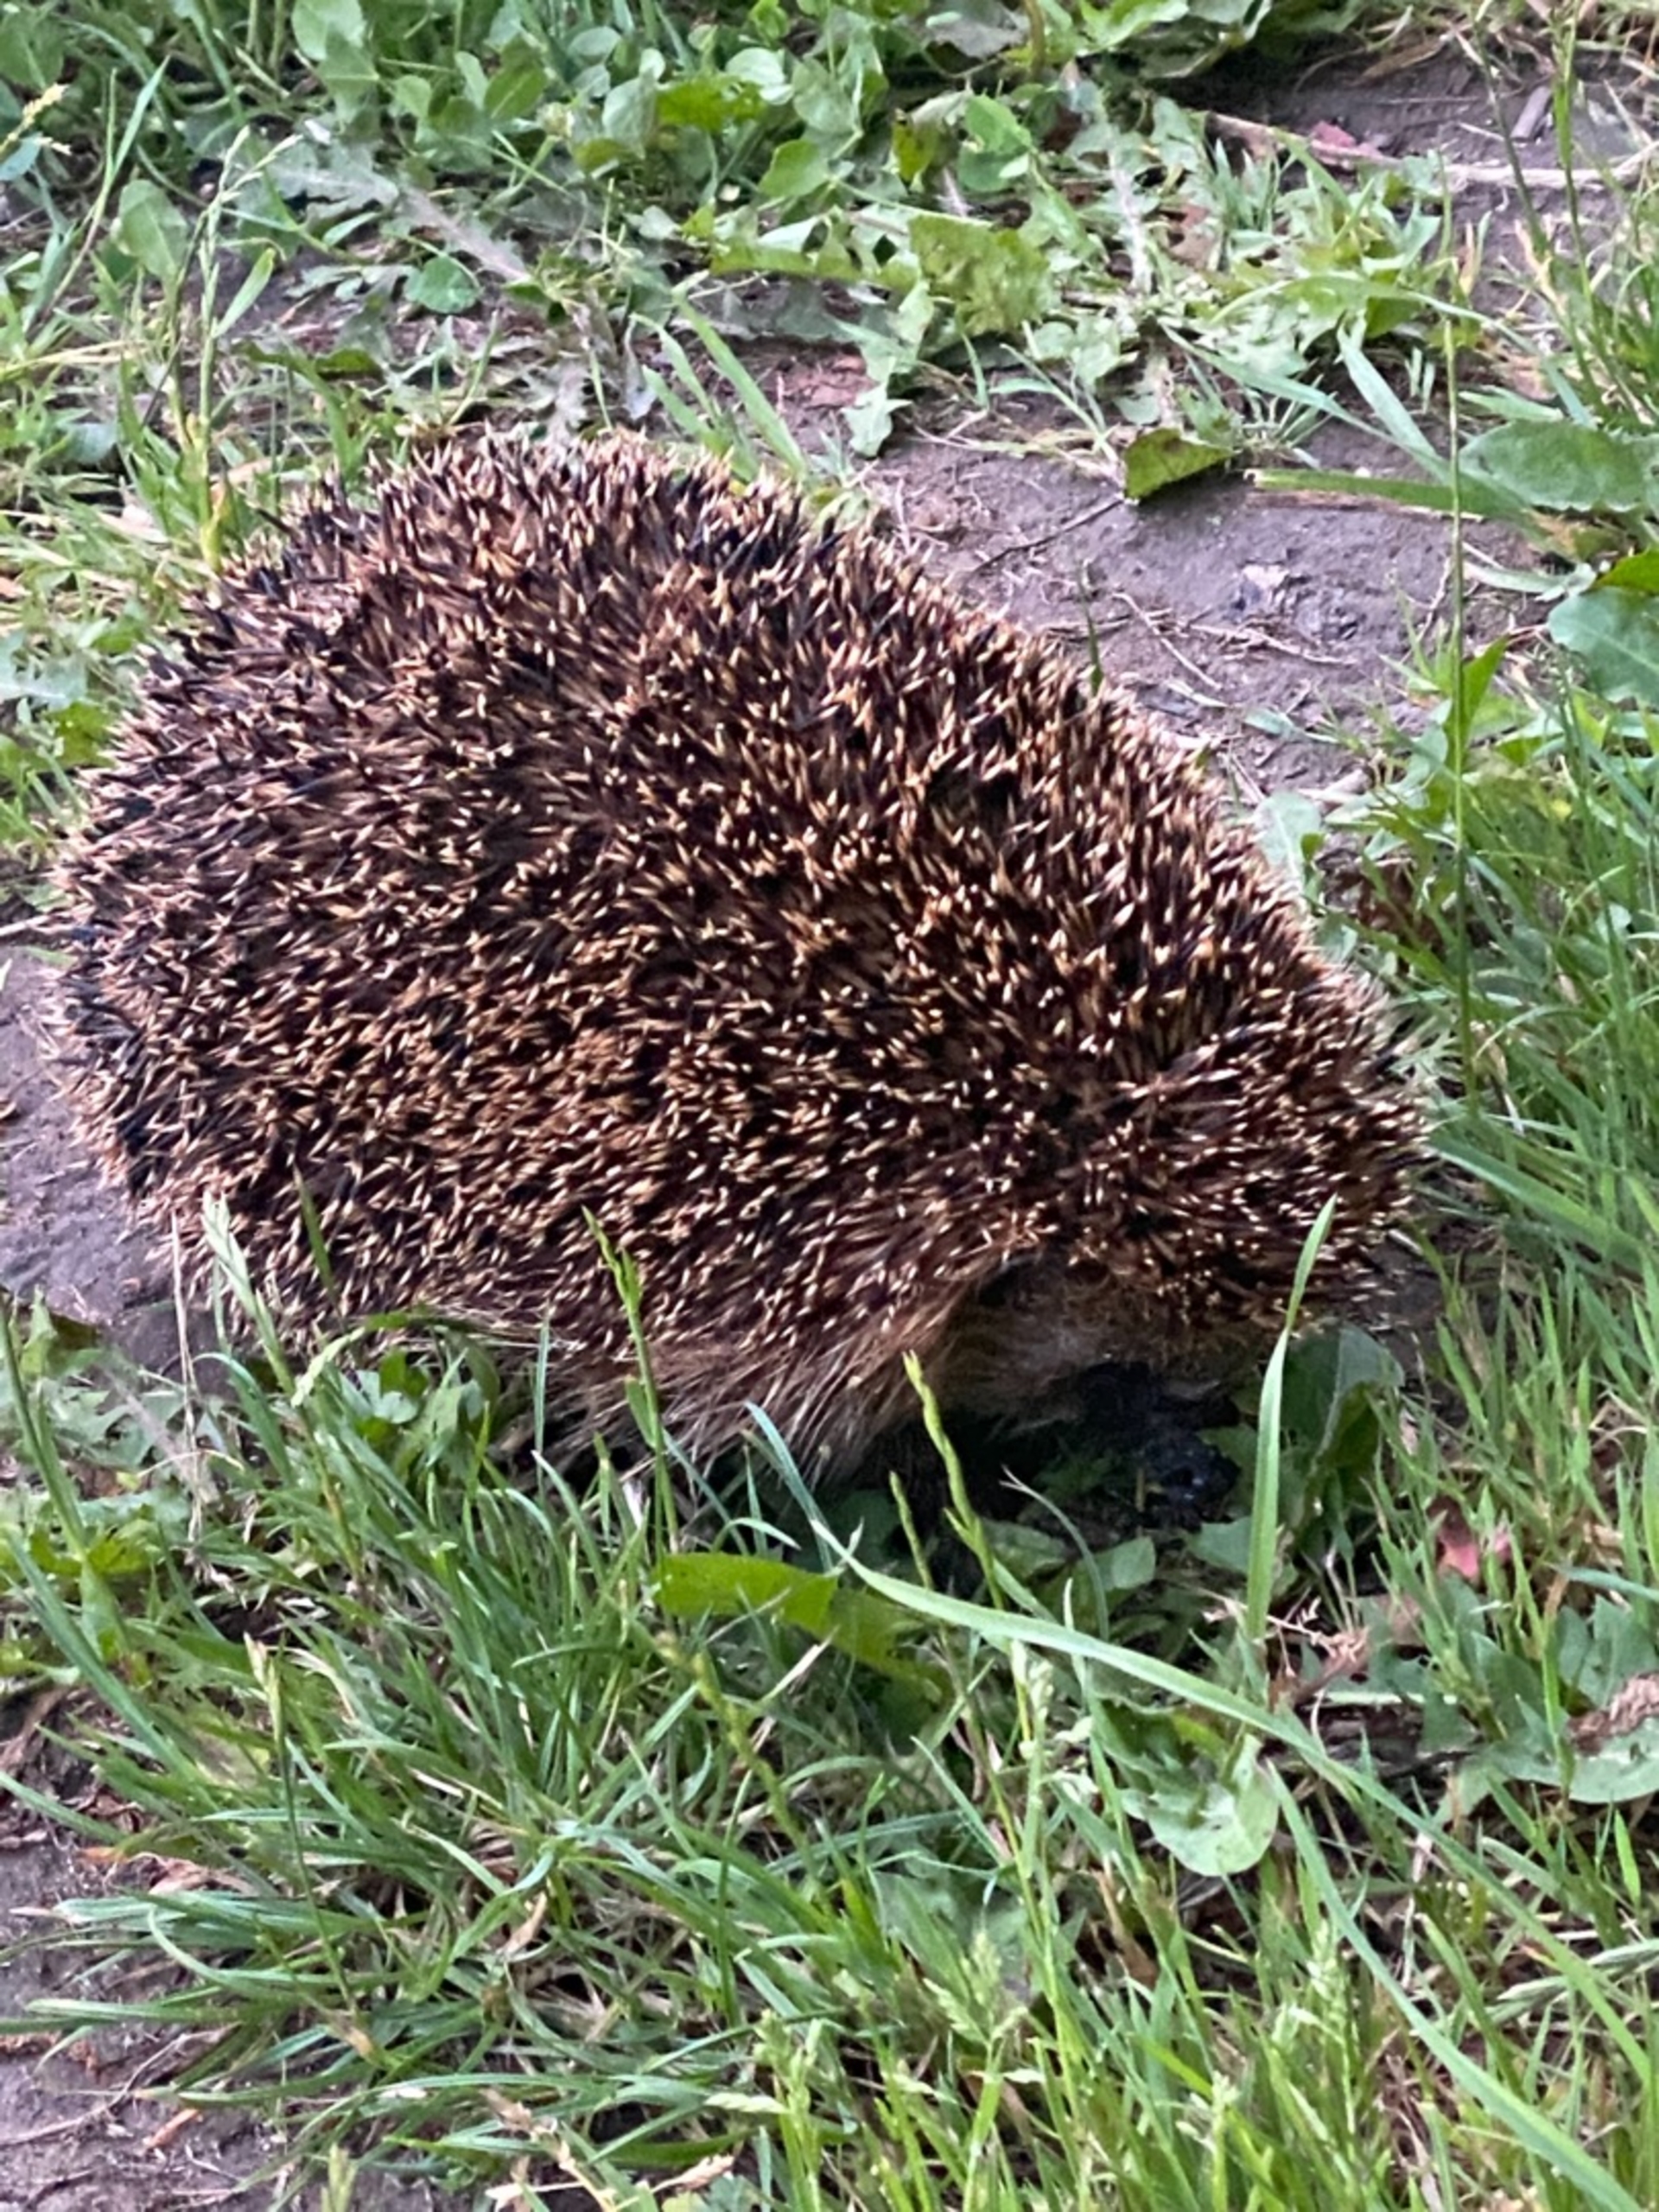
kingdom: Animalia
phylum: Chordata
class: Mammalia
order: Erinaceomorpha
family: Erinaceidae
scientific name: Erinaceidae
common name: Pindsvin
